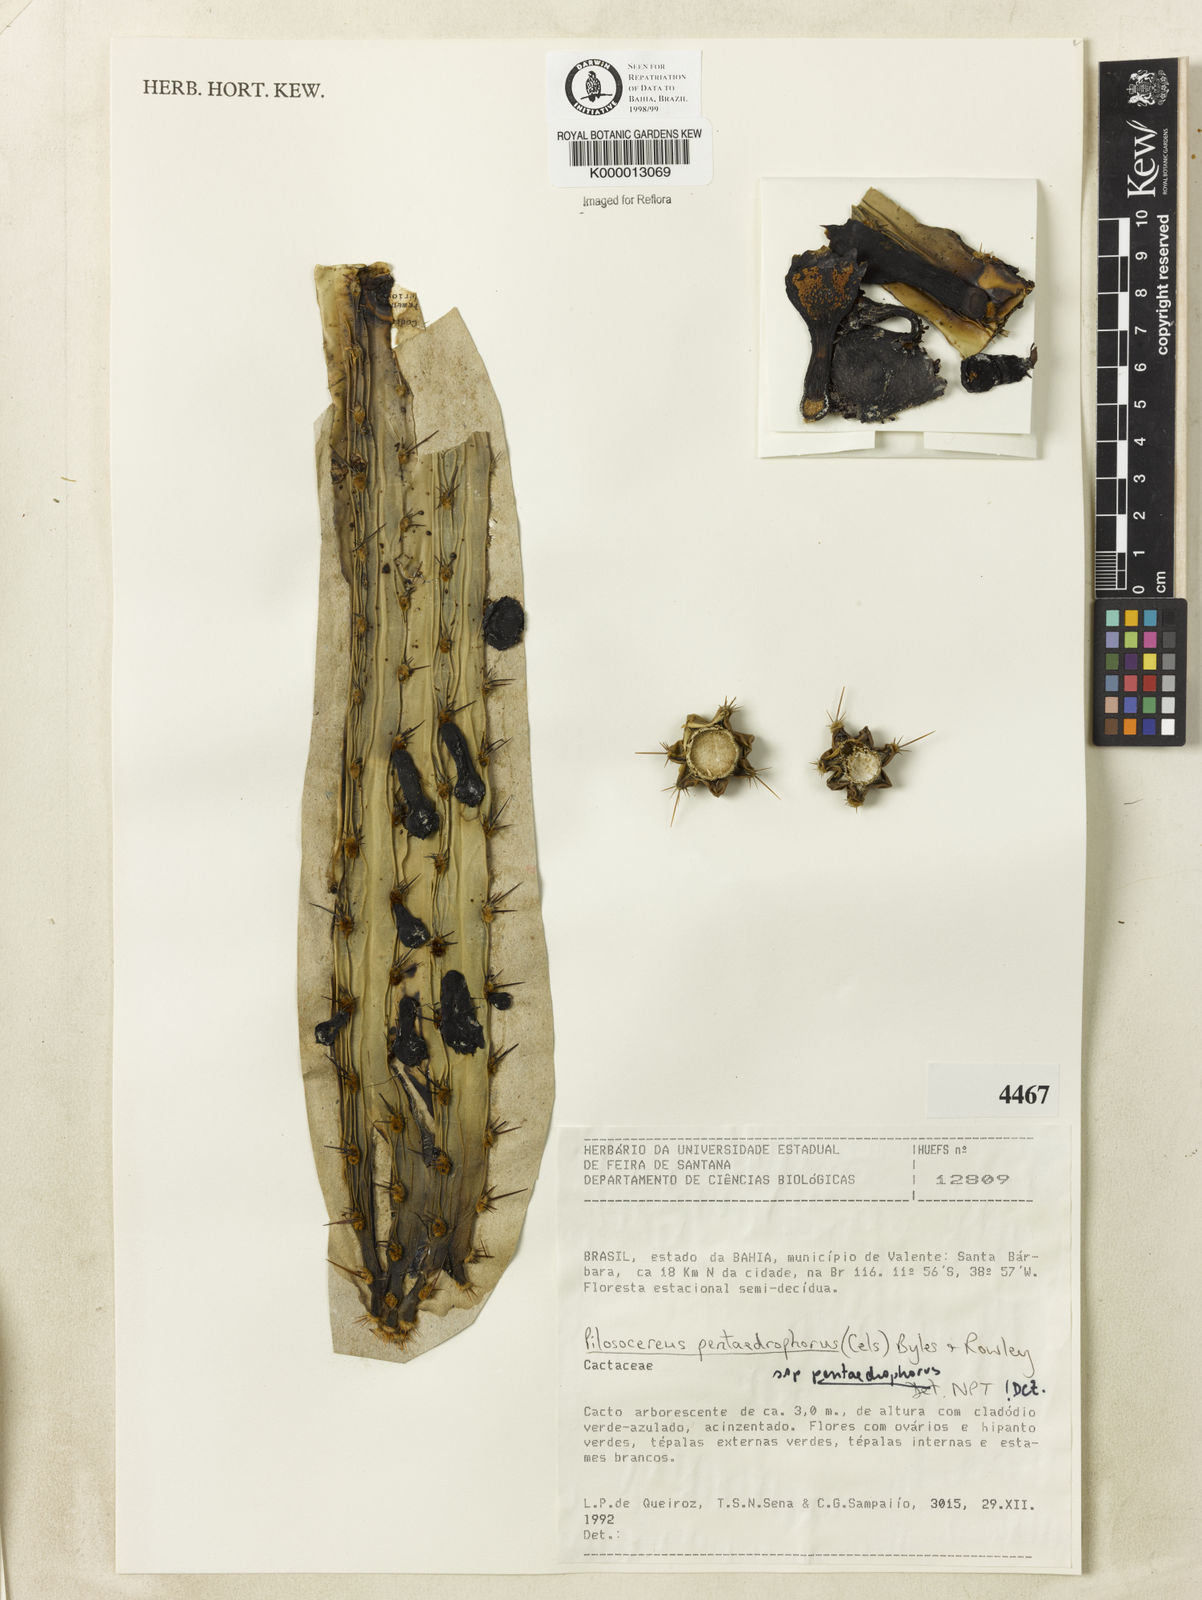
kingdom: Plantae
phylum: Tracheophyta
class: Magnoliopsida
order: Caryophyllales
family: Cactaceae
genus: Pilosocereus
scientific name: Pilosocereus pentaedrophorus
